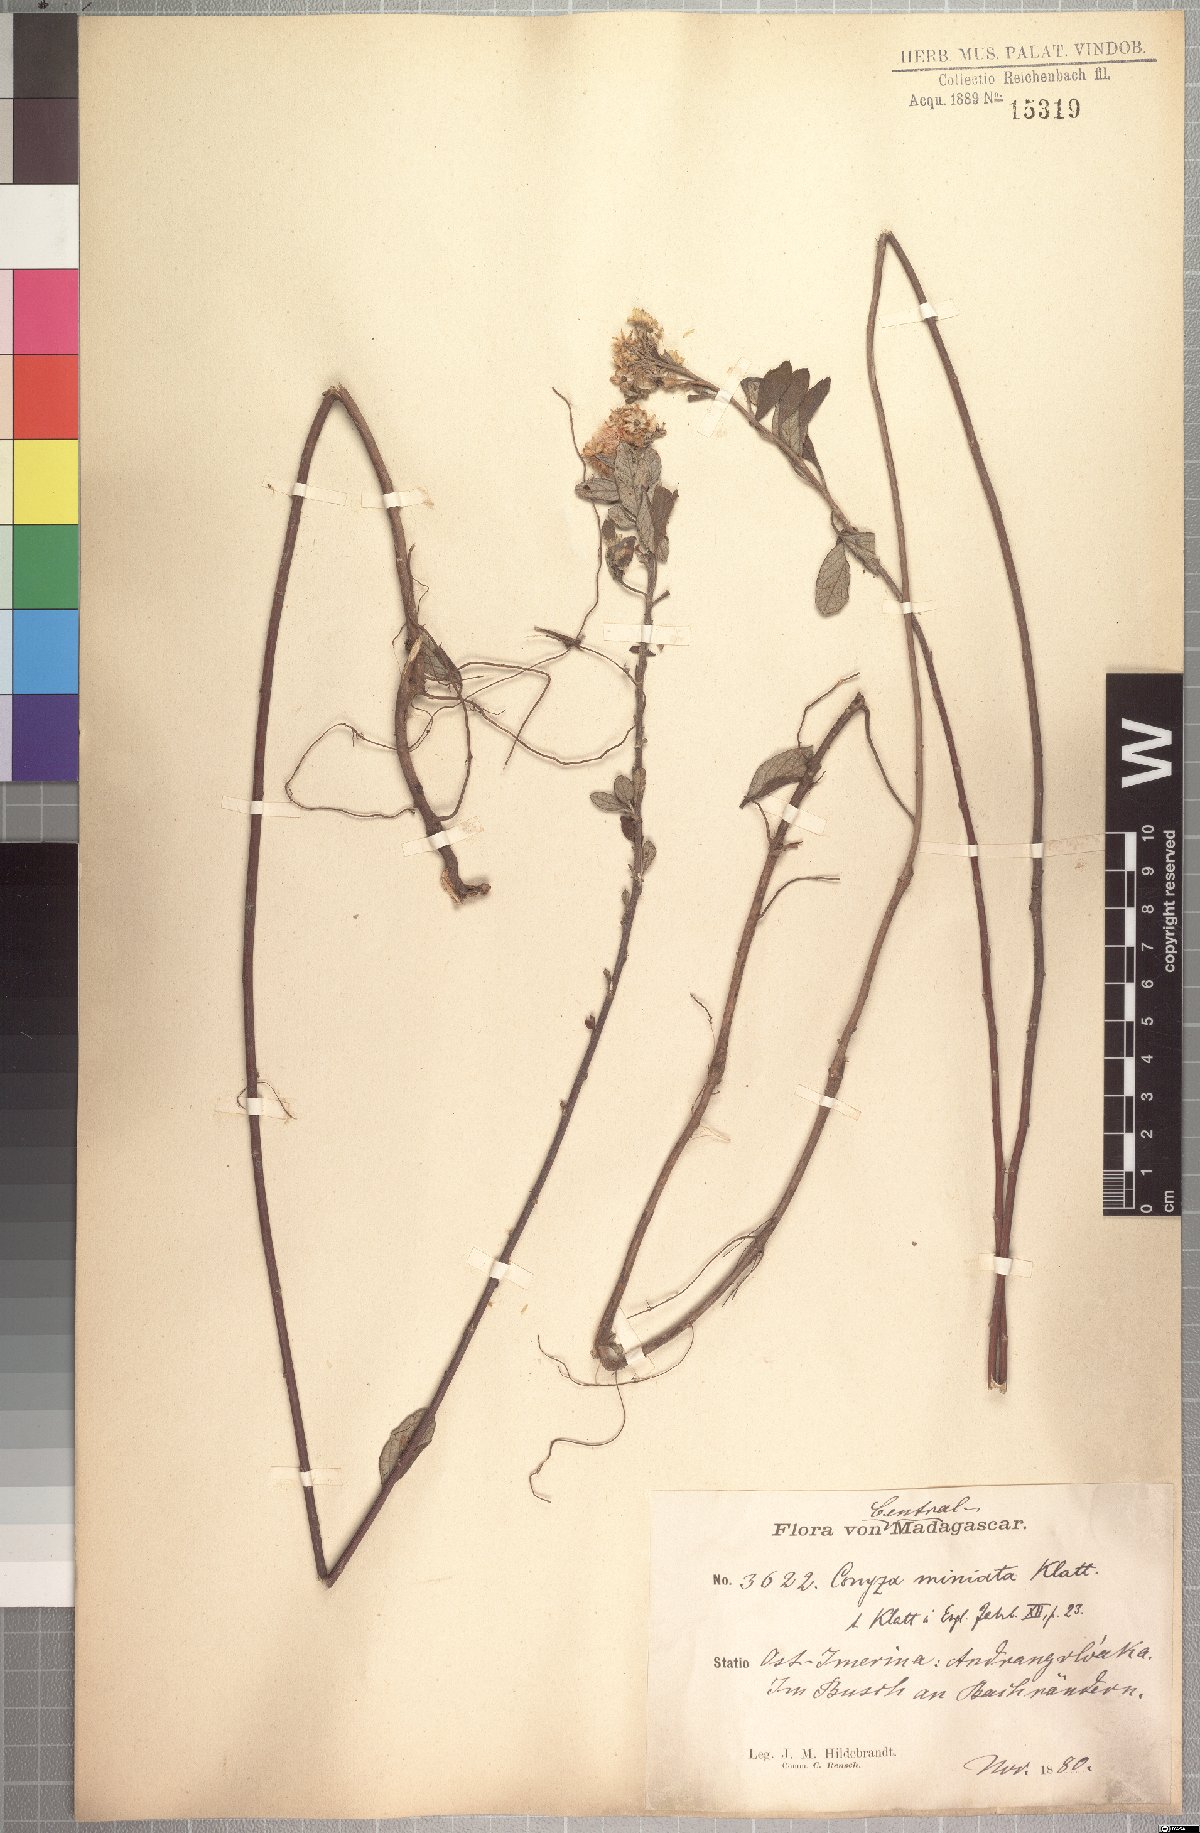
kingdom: Plantae
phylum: Tracheophyta
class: Magnoliopsida
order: Asterales
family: Asteraceae
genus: Psiadia
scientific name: Psiadia leucophylla
